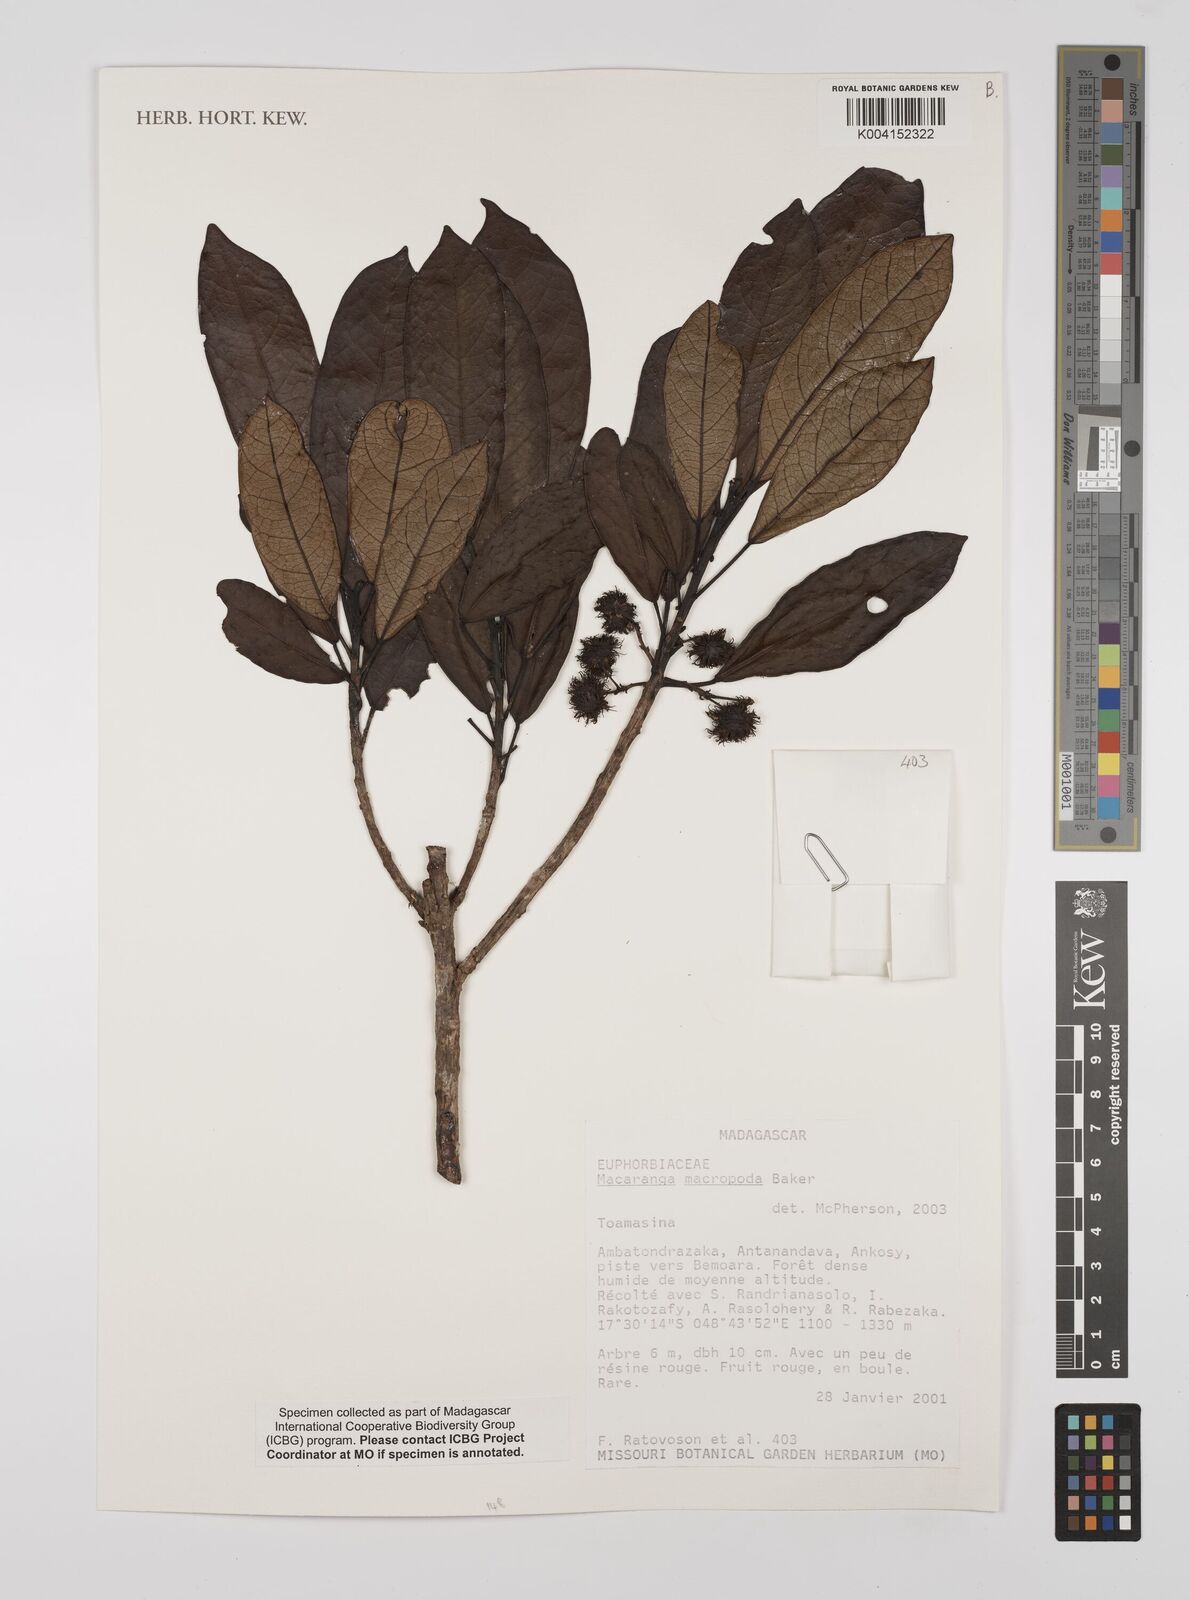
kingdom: Plantae
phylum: Tracheophyta
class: Magnoliopsida
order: Malpighiales
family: Euphorbiaceae
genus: Macaranga
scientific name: Macaranga macropoda
